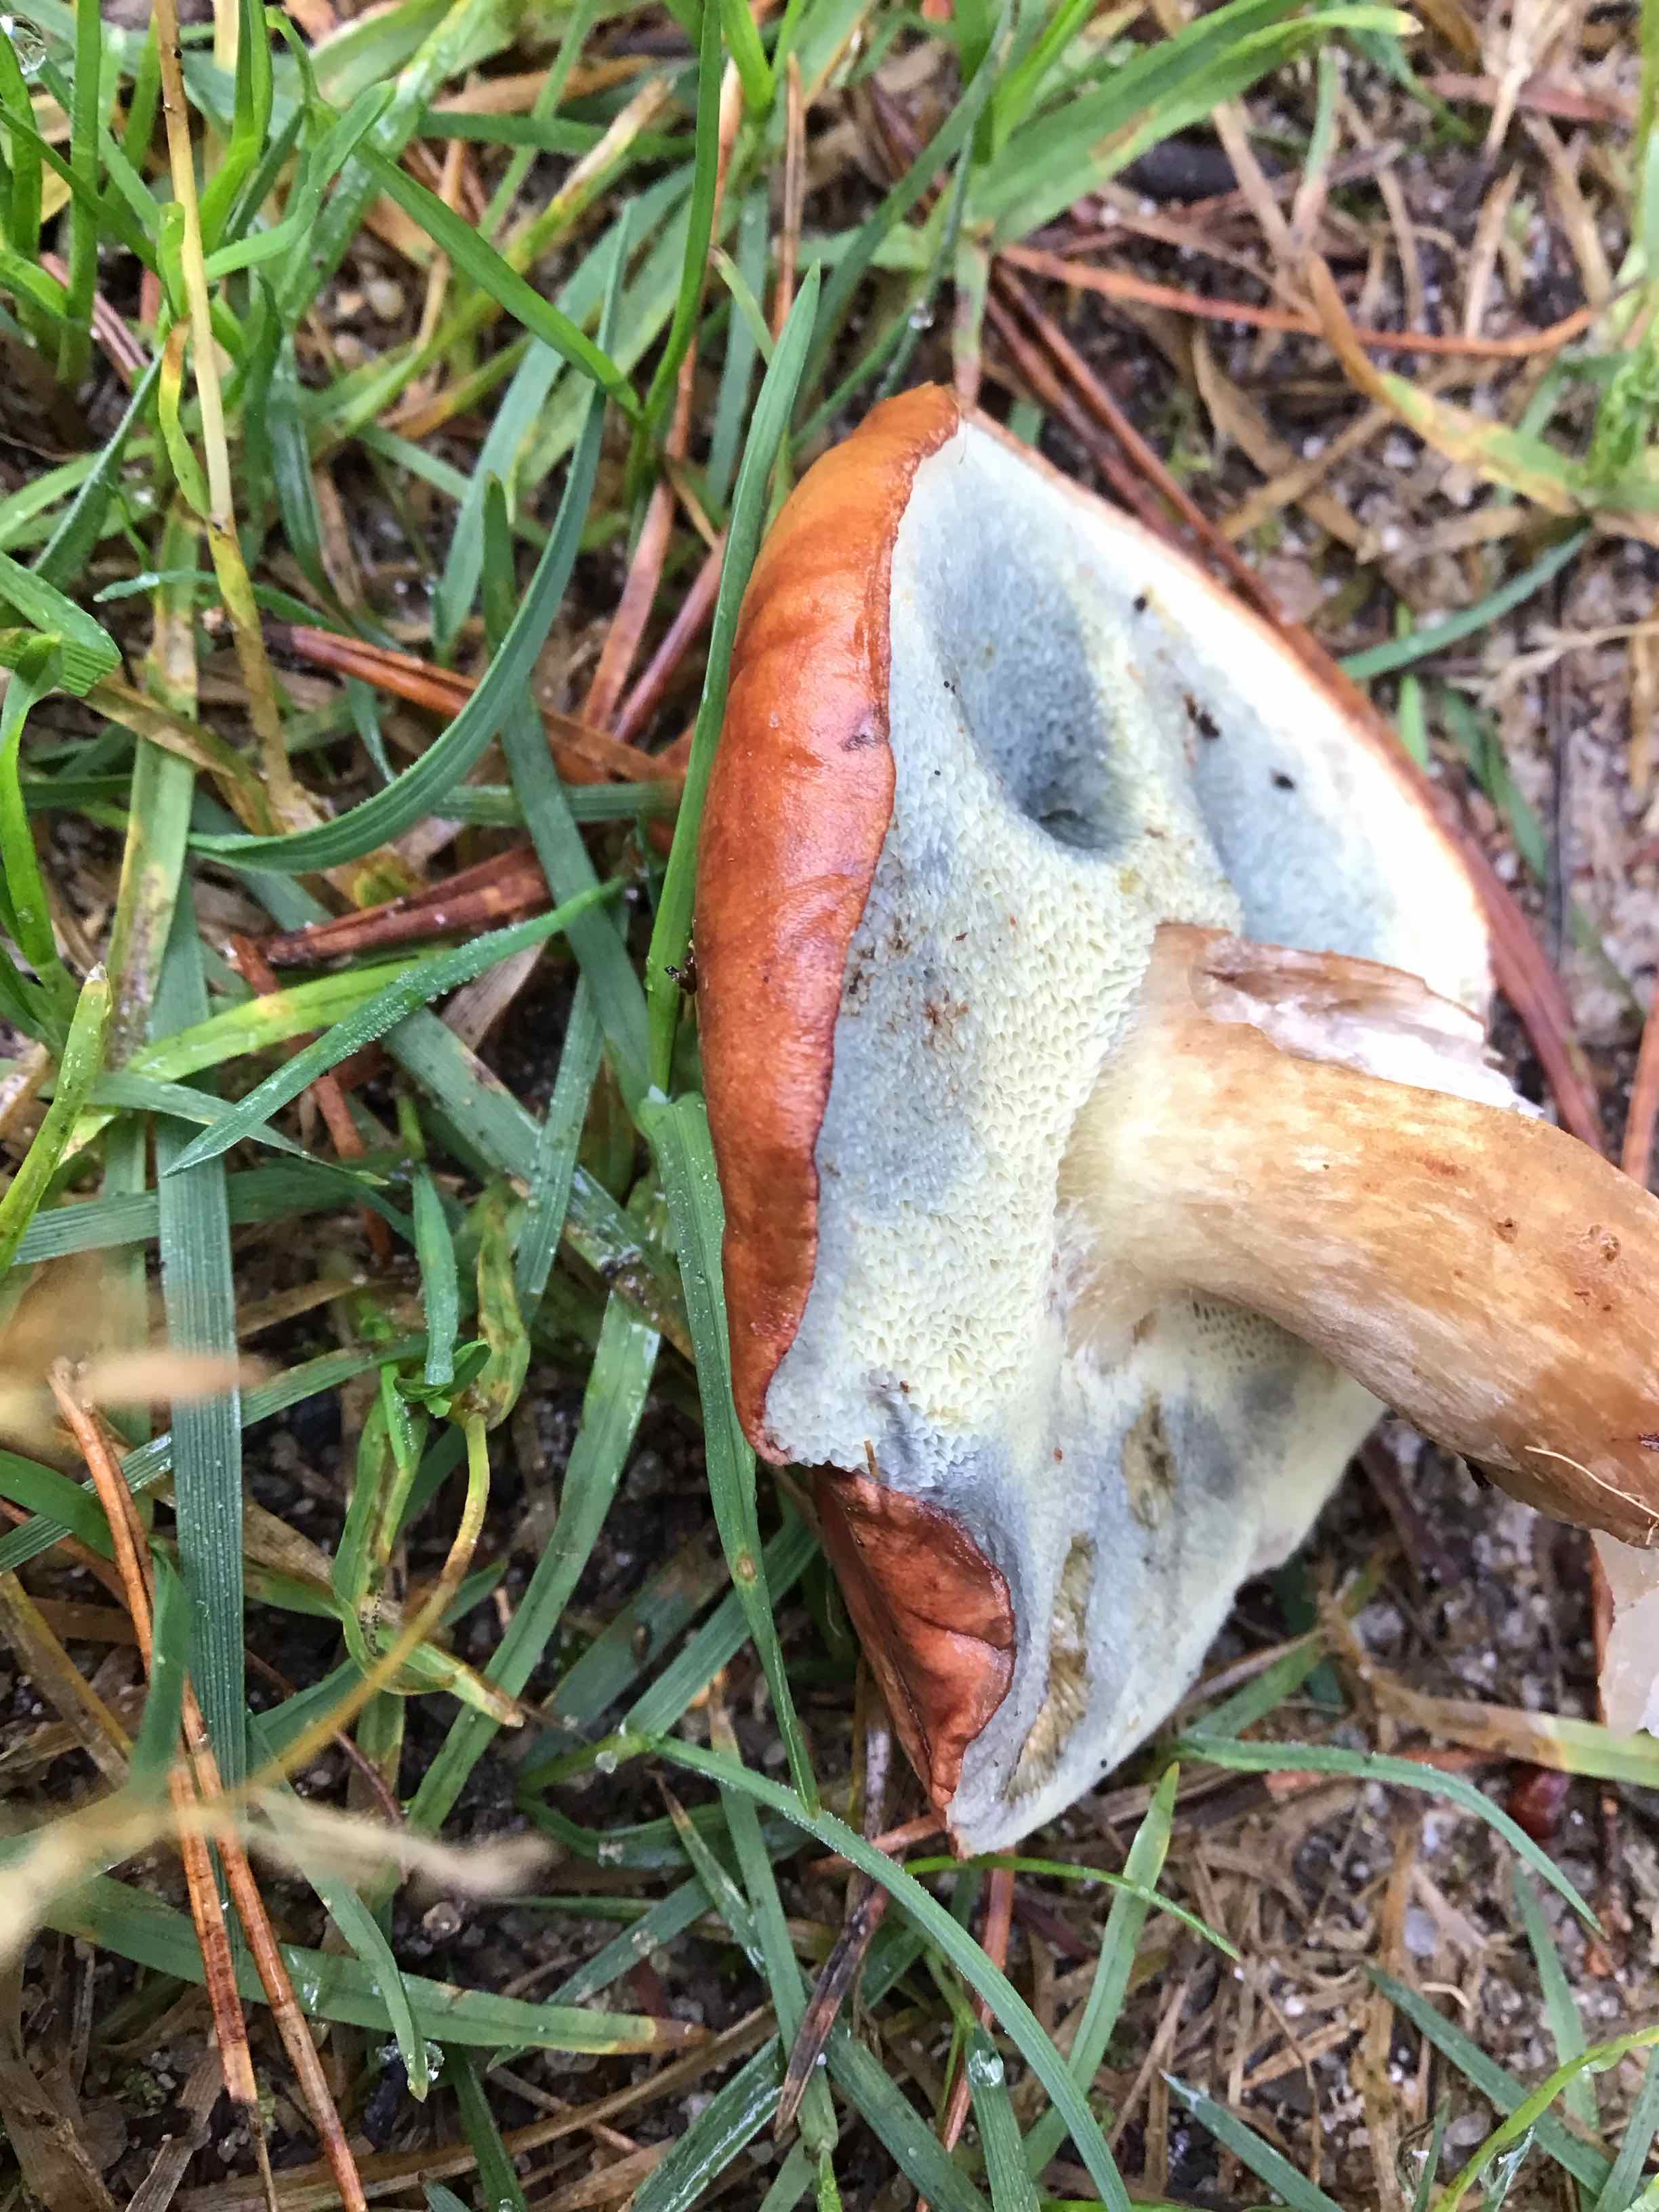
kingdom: Fungi
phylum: Basidiomycota
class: Agaricomycetes
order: Boletales
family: Boletaceae
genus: Imleria
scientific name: Imleria badia
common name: brunstokket rørhat
